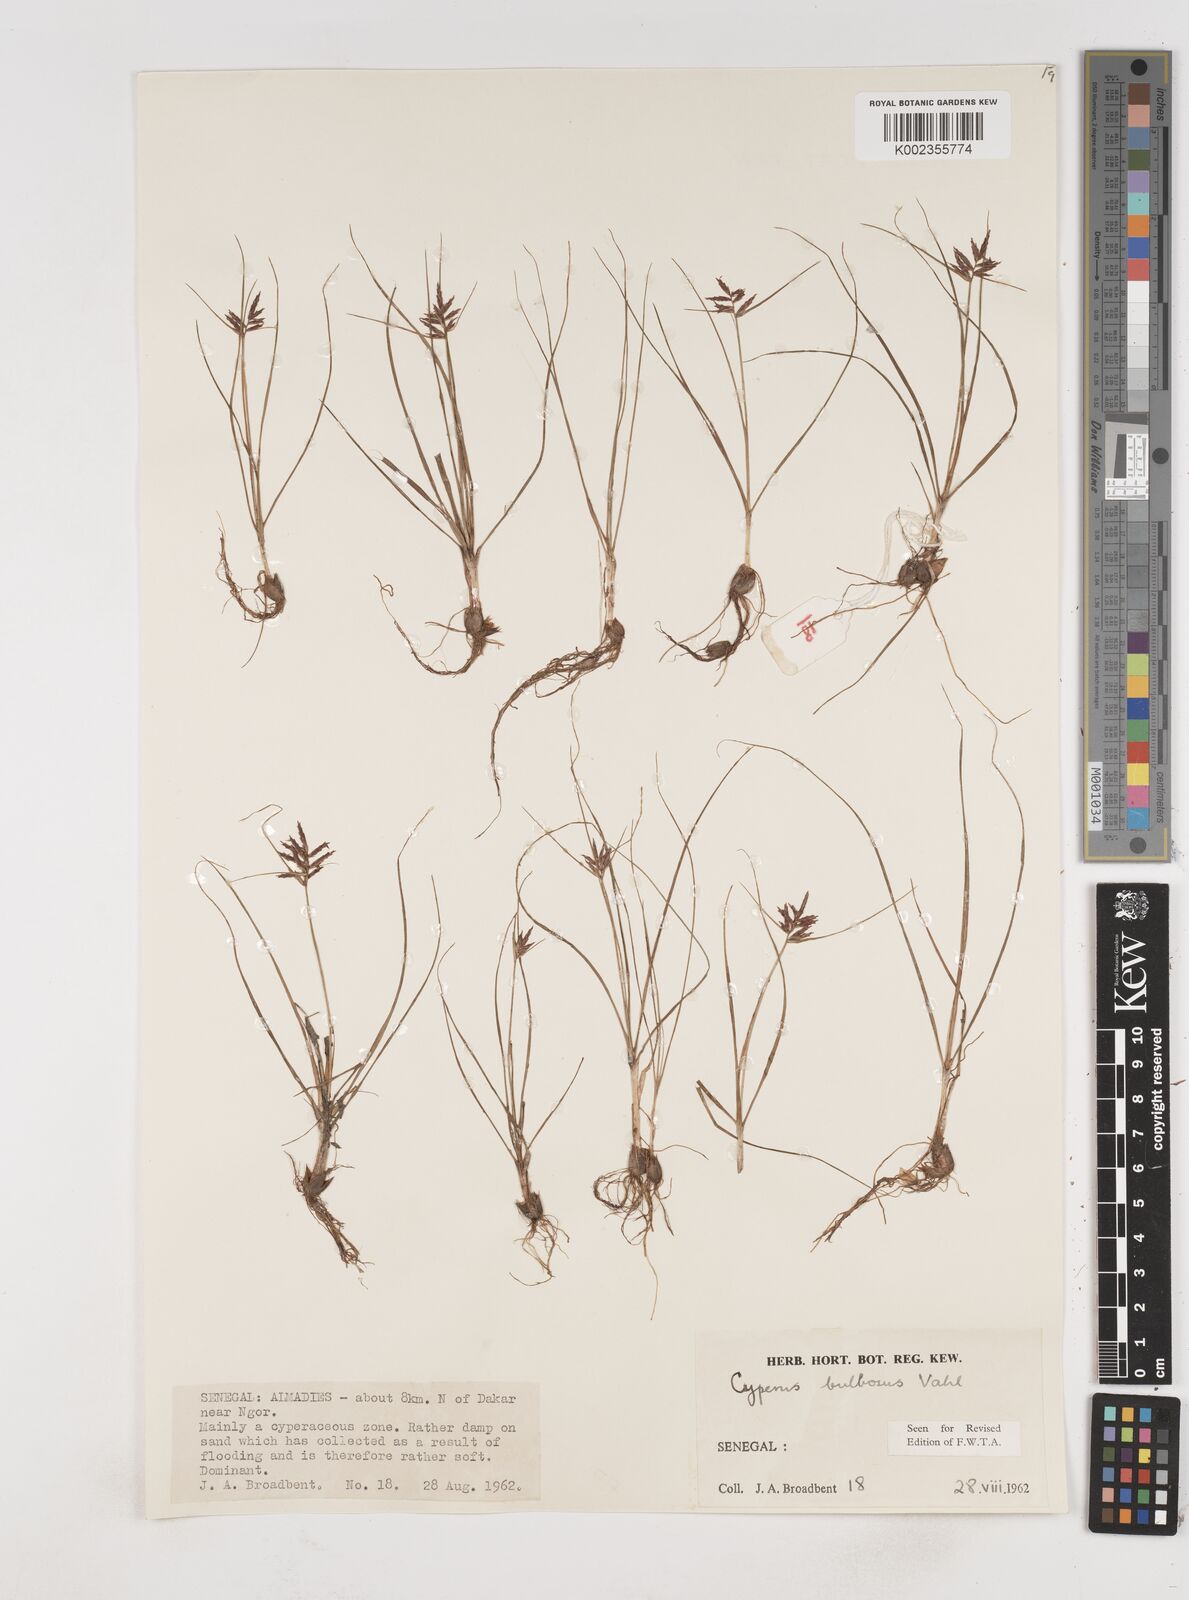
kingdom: Plantae
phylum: Tracheophyta
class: Liliopsida
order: Poales
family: Cyperaceae
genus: Cyperus
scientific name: Cyperus bulbosus
